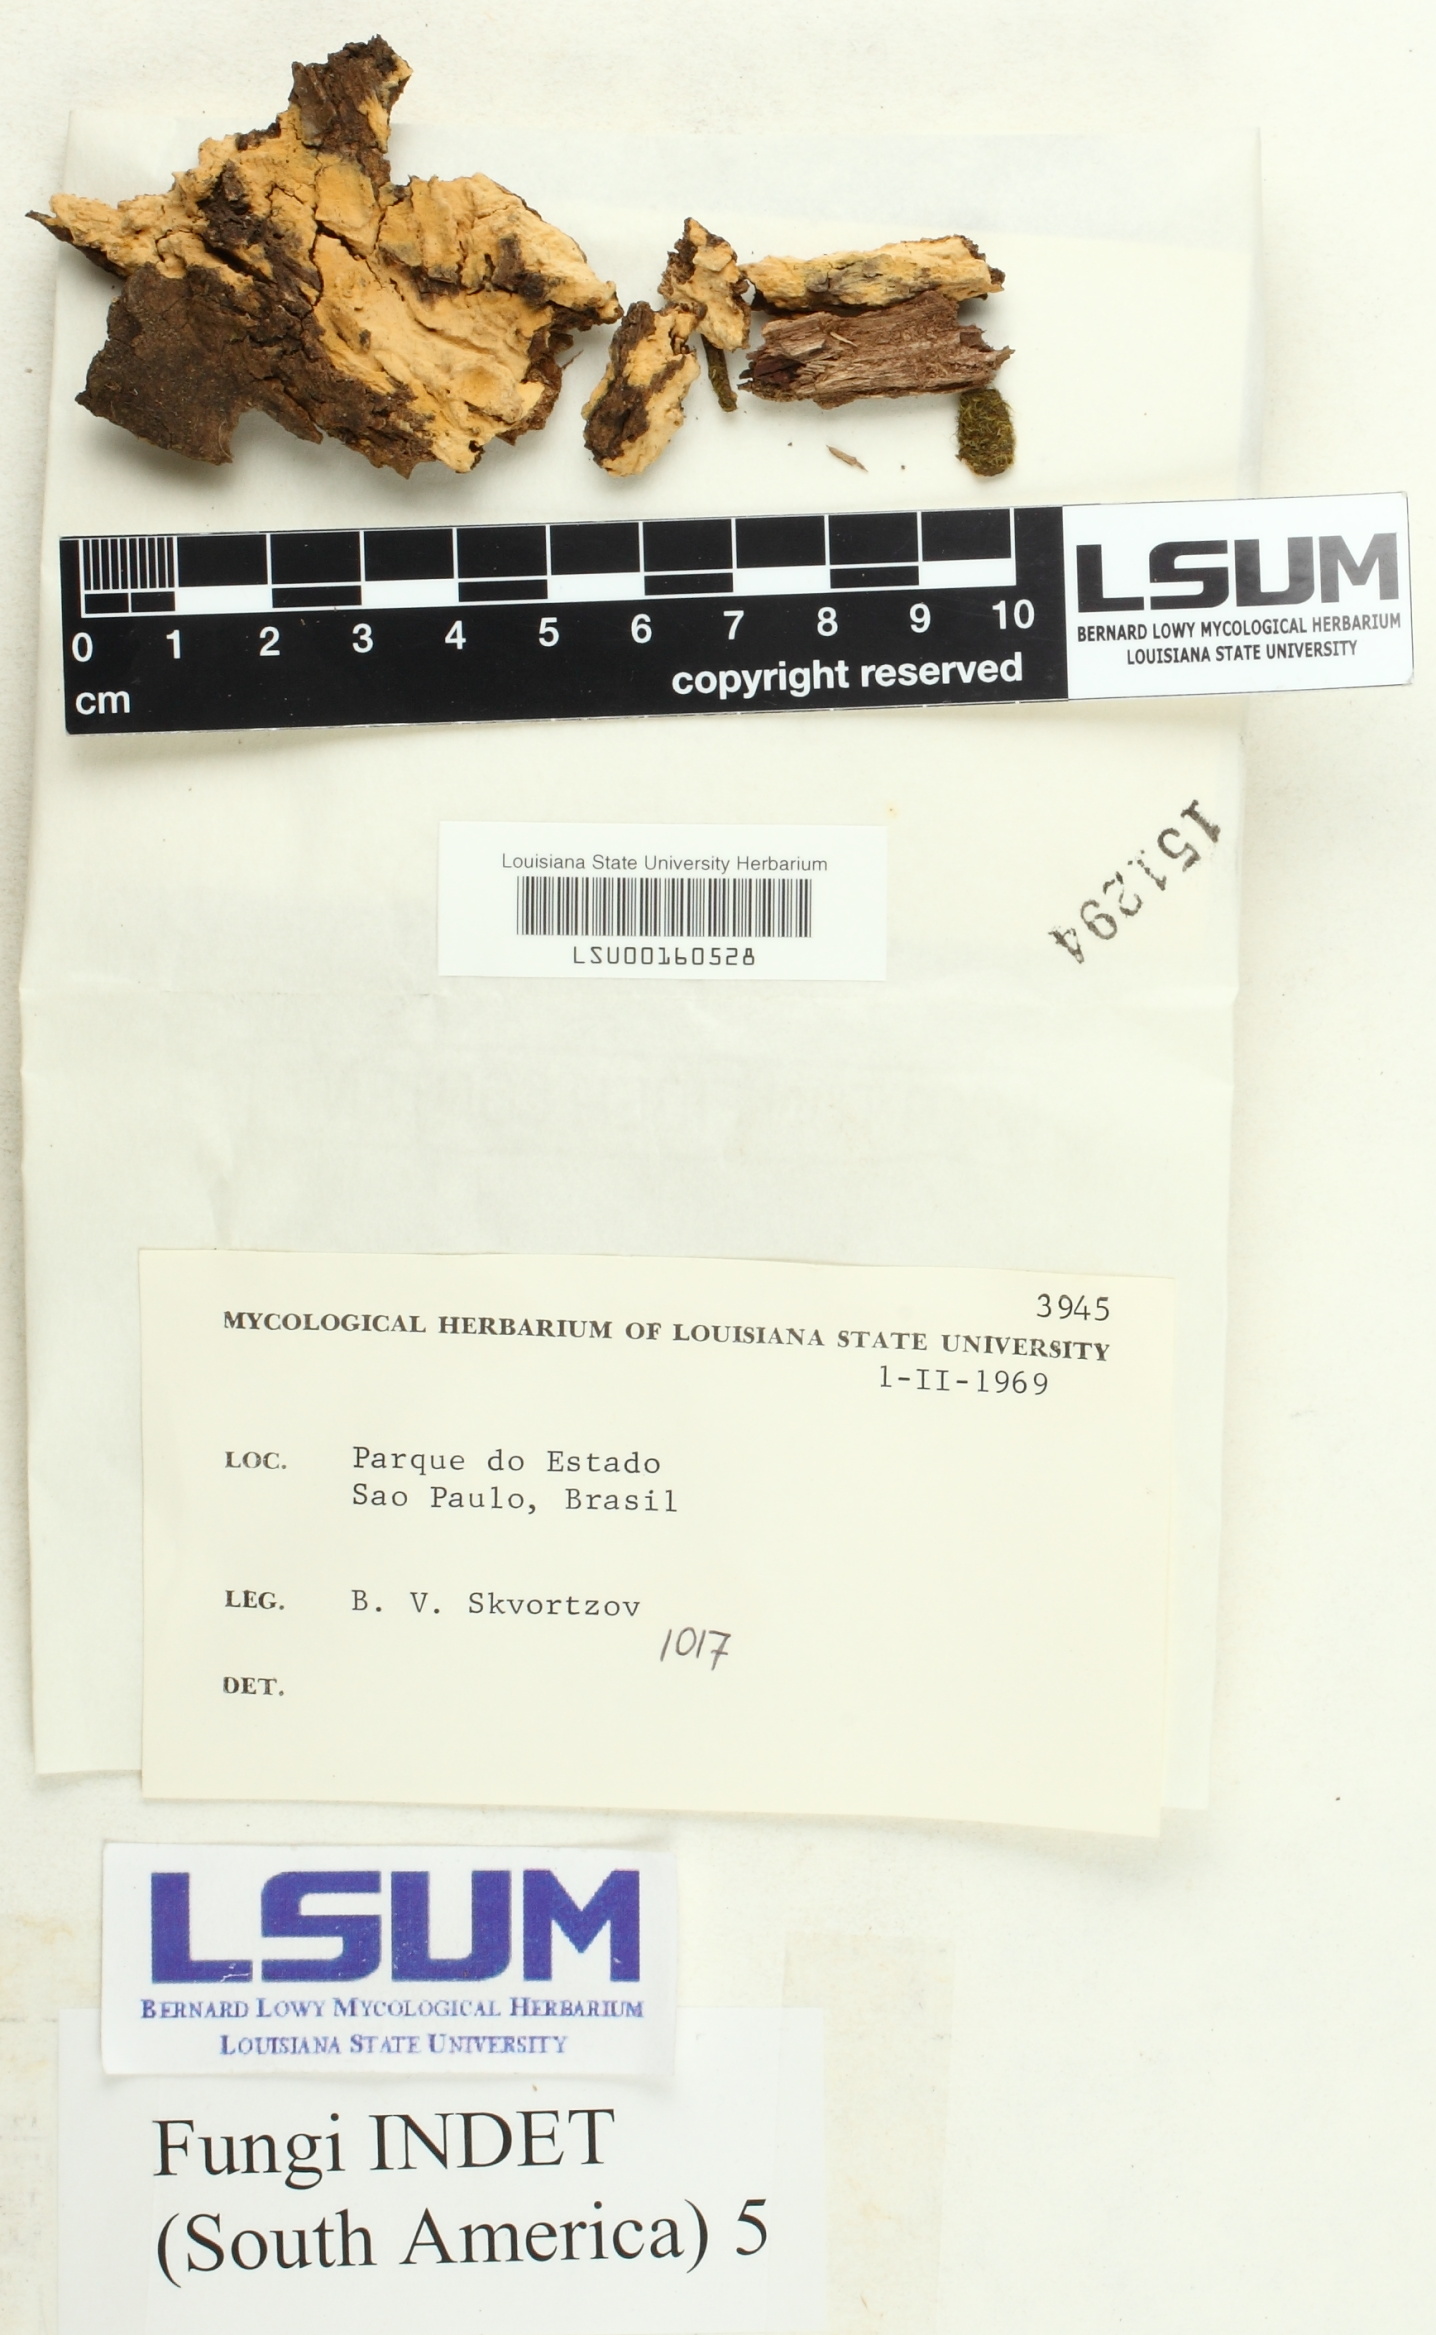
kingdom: Fungi
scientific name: Fungi
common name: Fungi
